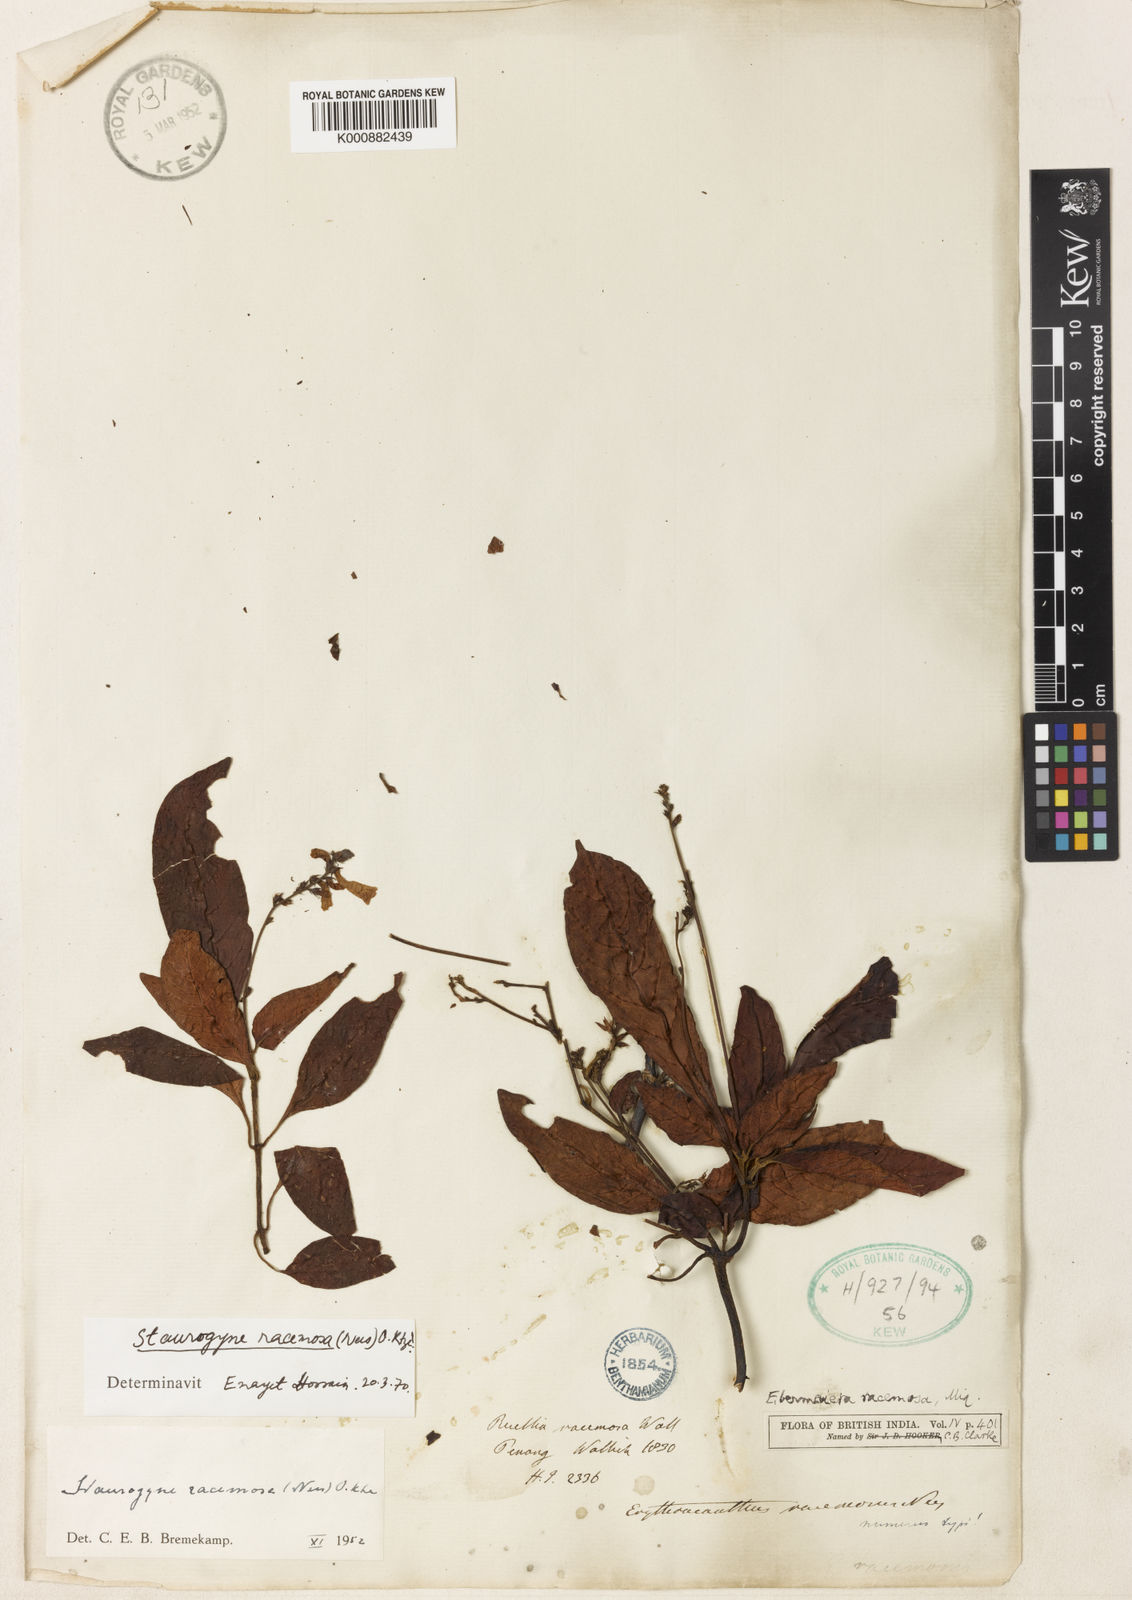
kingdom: Plantae
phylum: Tracheophyta
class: Magnoliopsida
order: Lamiales
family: Acanthaceae
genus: Staurogyne
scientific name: Staurogyne racemosa
